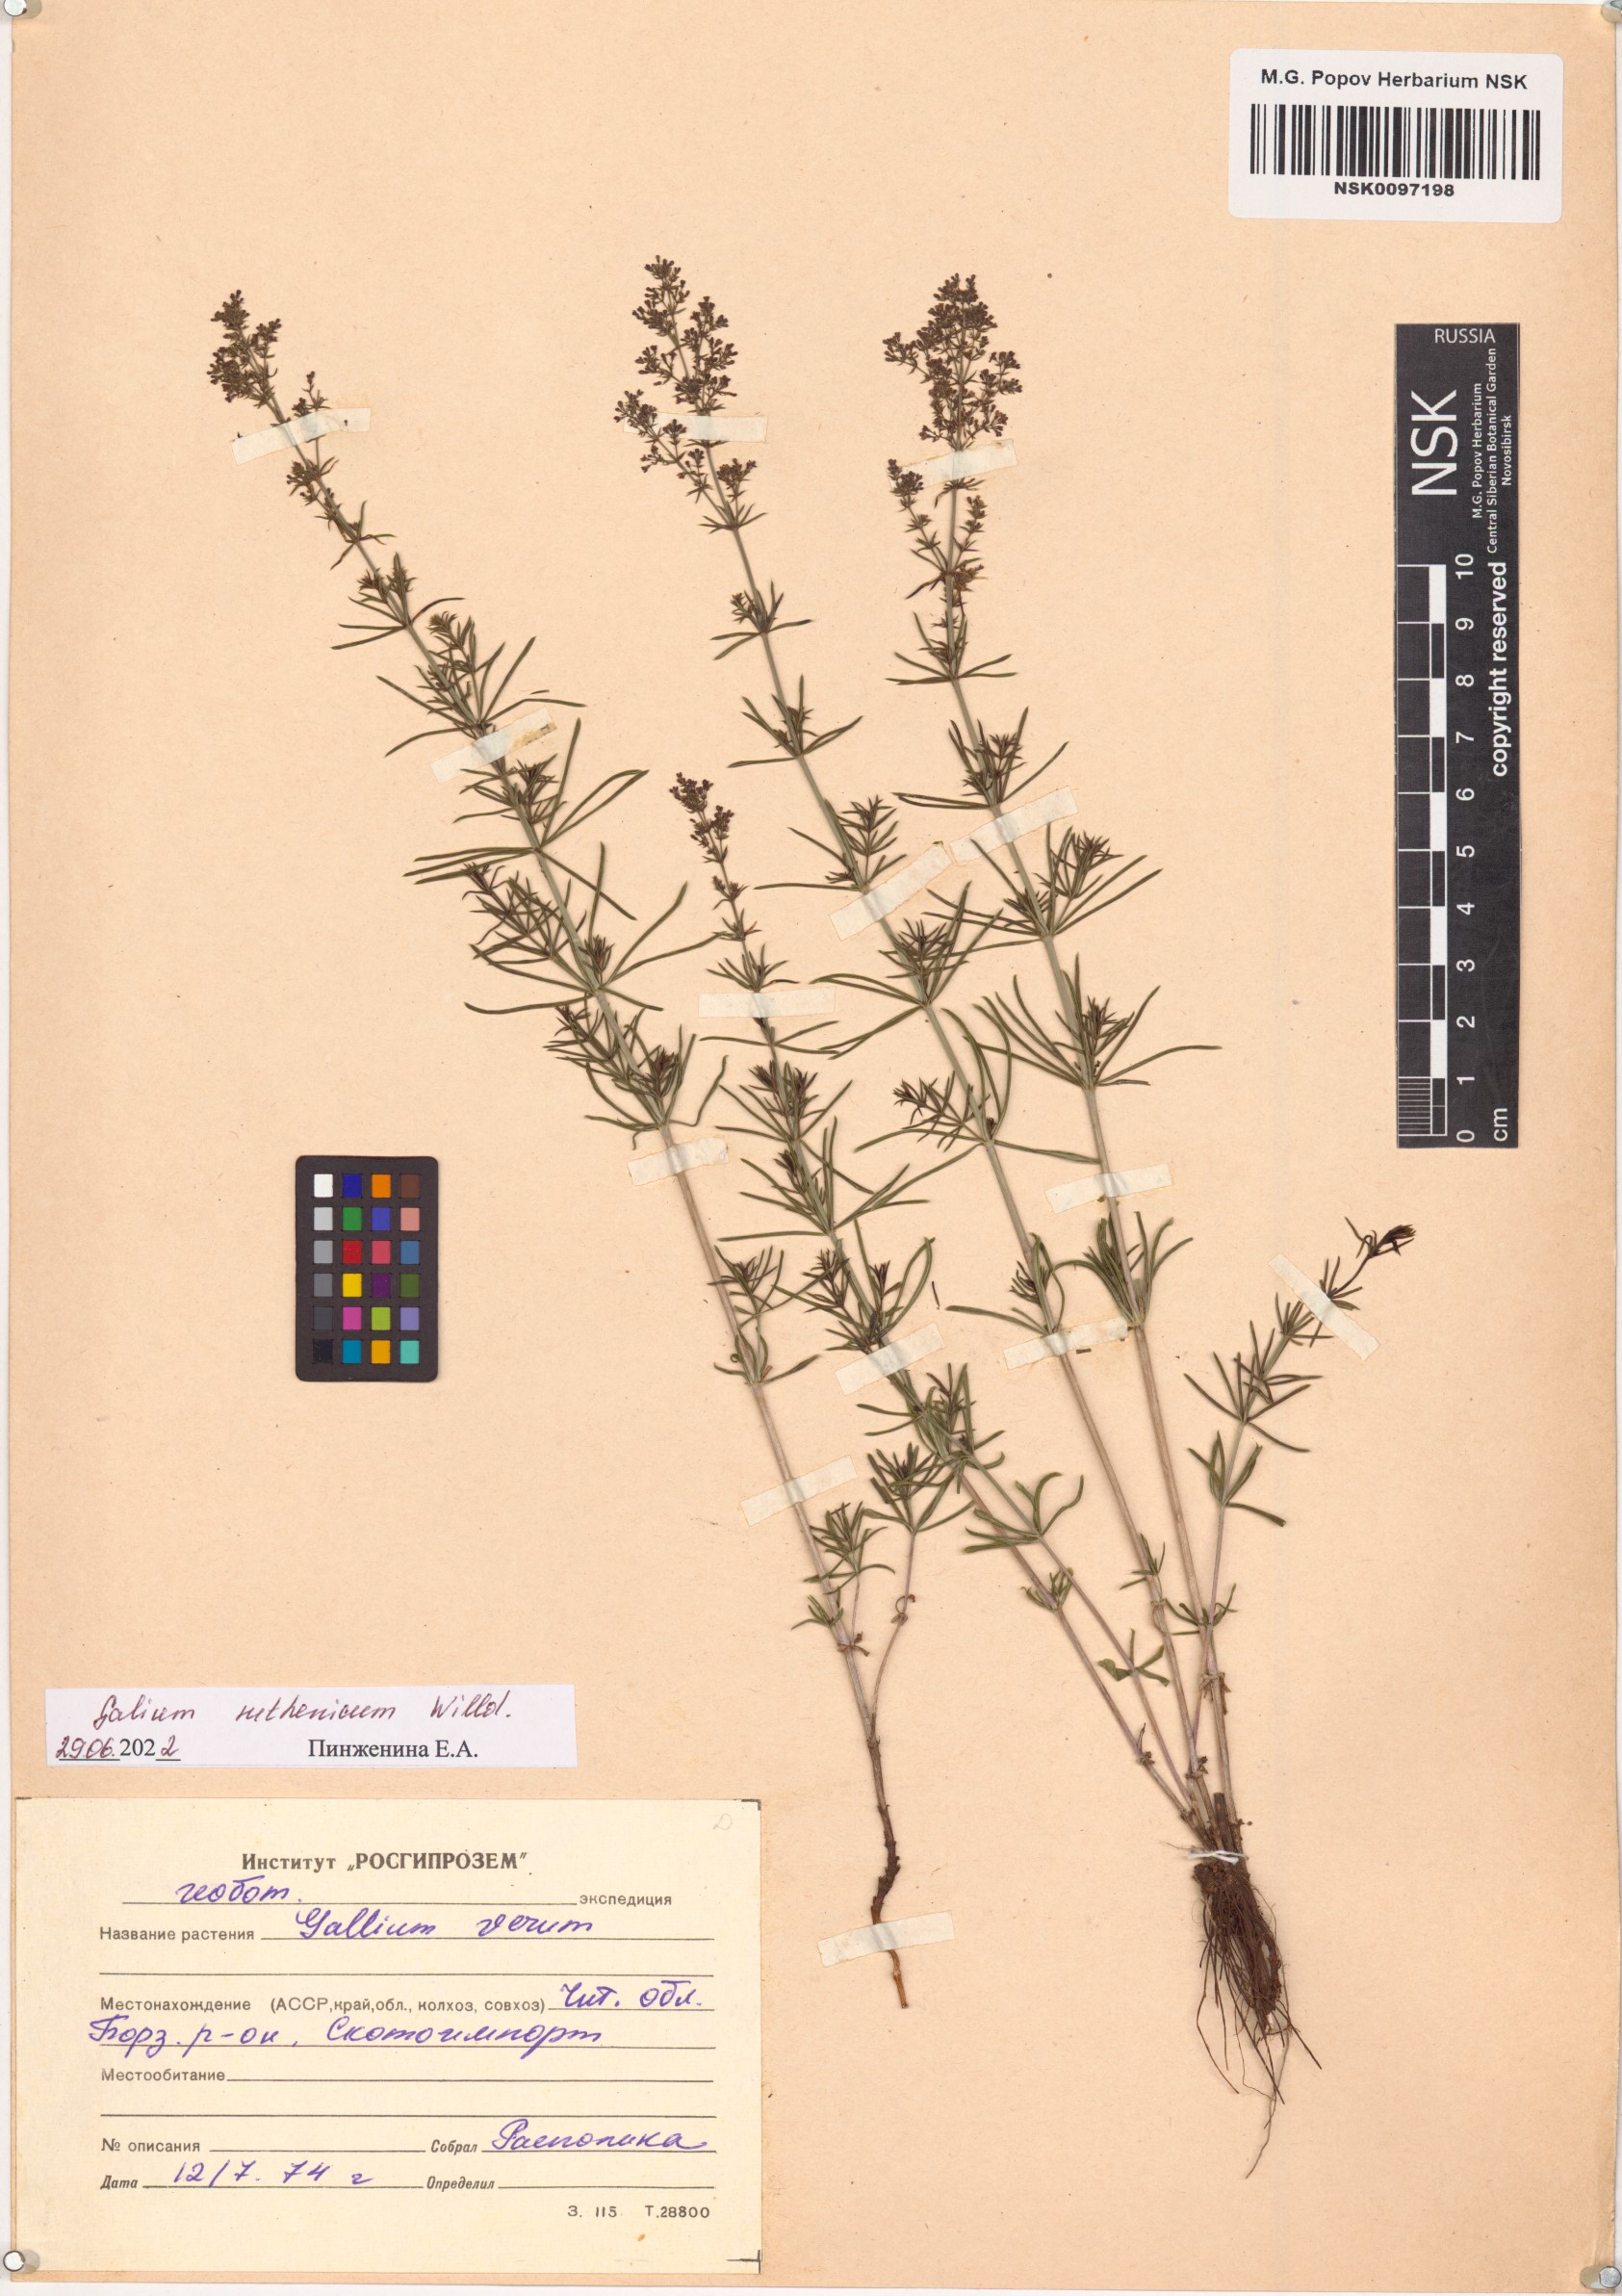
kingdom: Plantae
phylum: Tracheophyta
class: Magnoliopsida
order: Gentianales
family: Rubiaceae
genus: Galium
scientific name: Galium verum
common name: Lady's bedstraw
